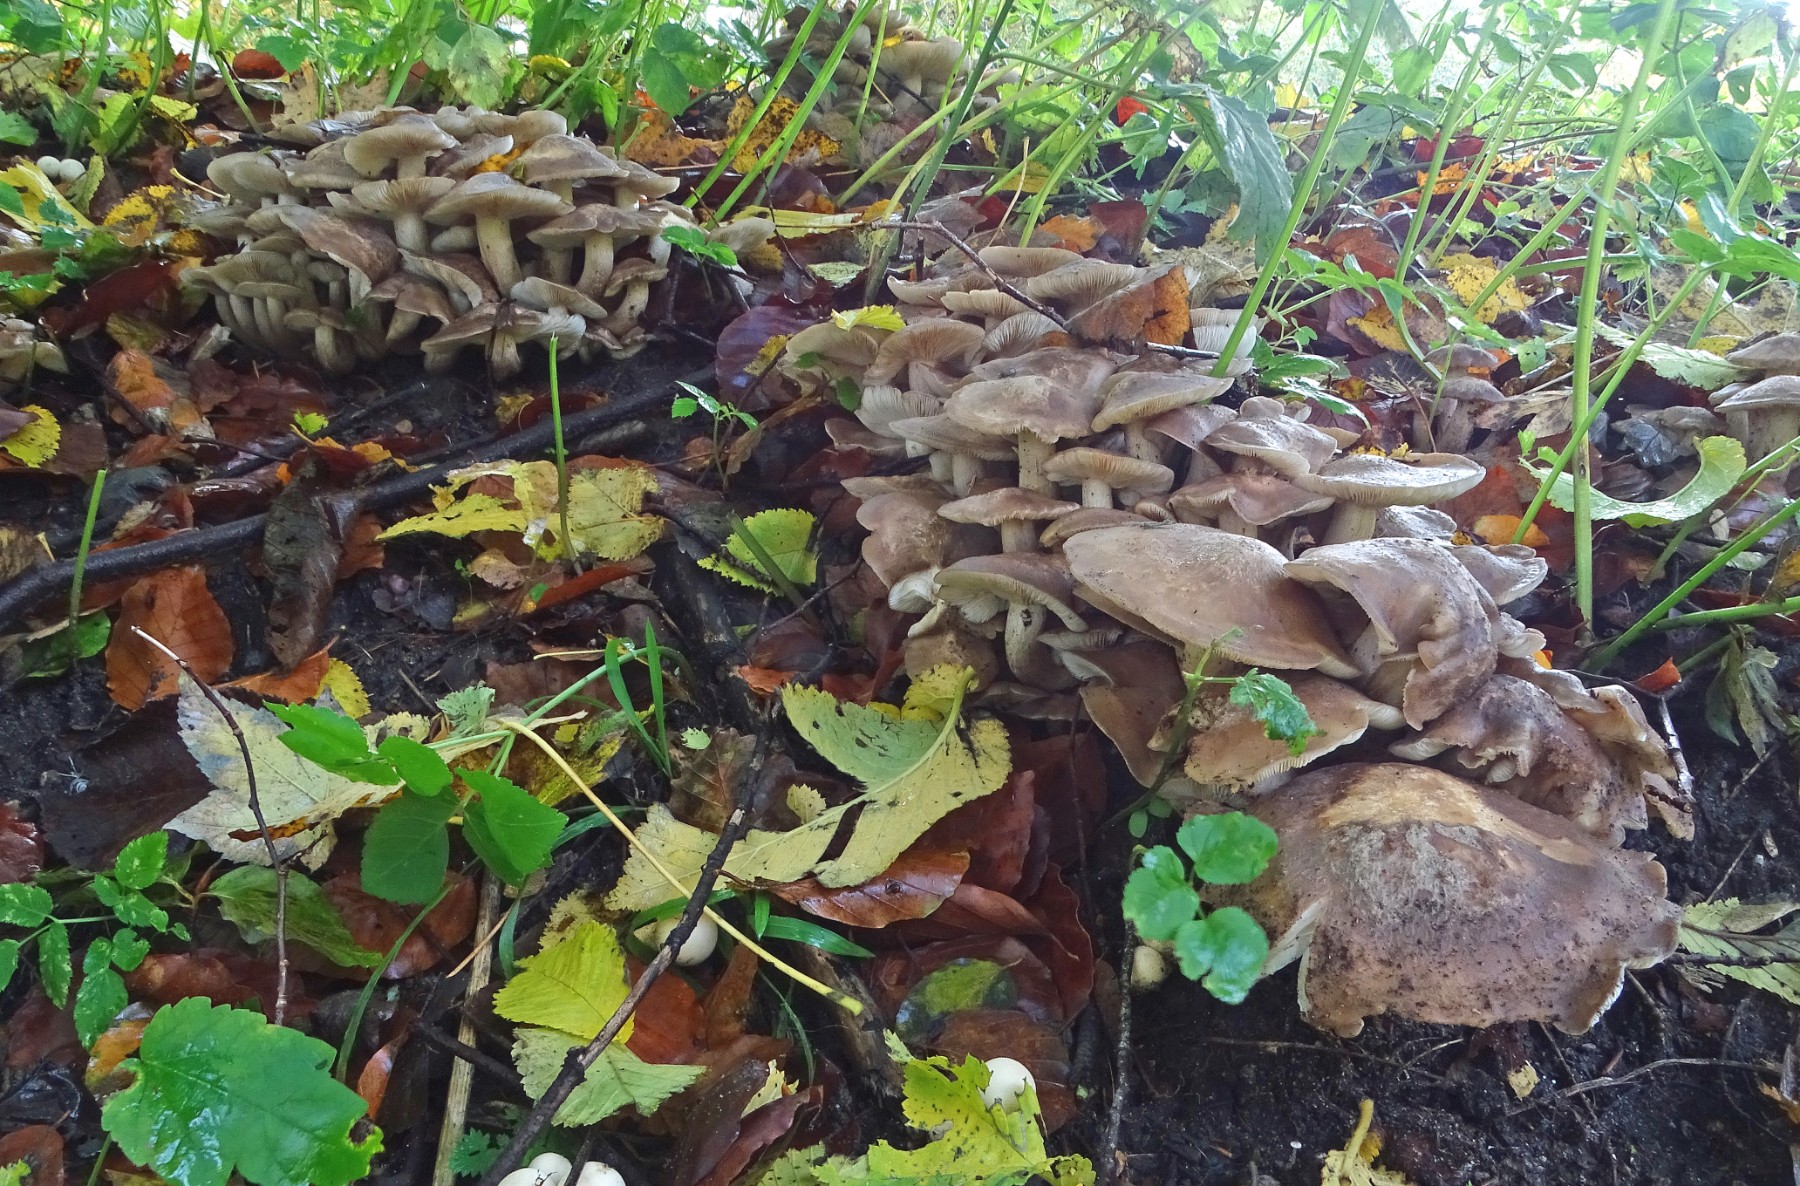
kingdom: Fungi
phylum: Basidiomycota
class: Agaricomycetes
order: Agaricales
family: Lyophyllaceae
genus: Lyophyllum
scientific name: Lyophyllum decastes
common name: røggrå gråblad
